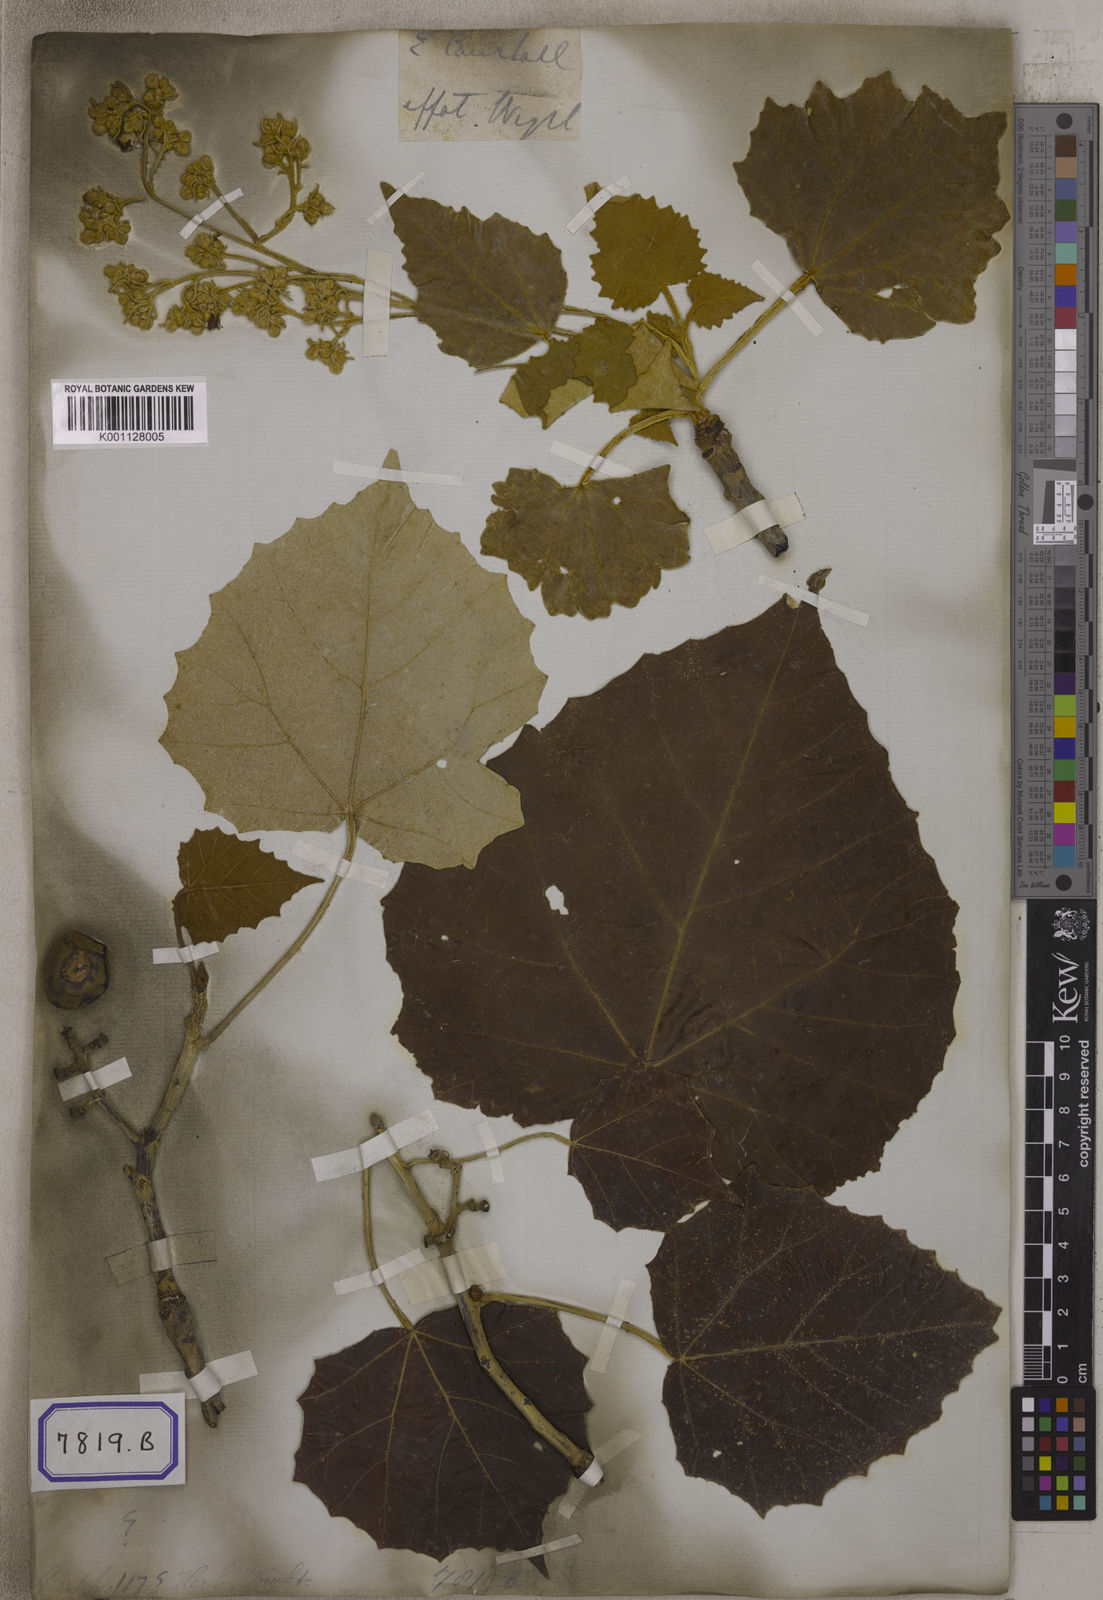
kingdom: Plantae
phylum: Tracheophyta
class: Magnoliopsida
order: Malpighiales
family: Euphorbiaceae
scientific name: Euphorbiaceae
